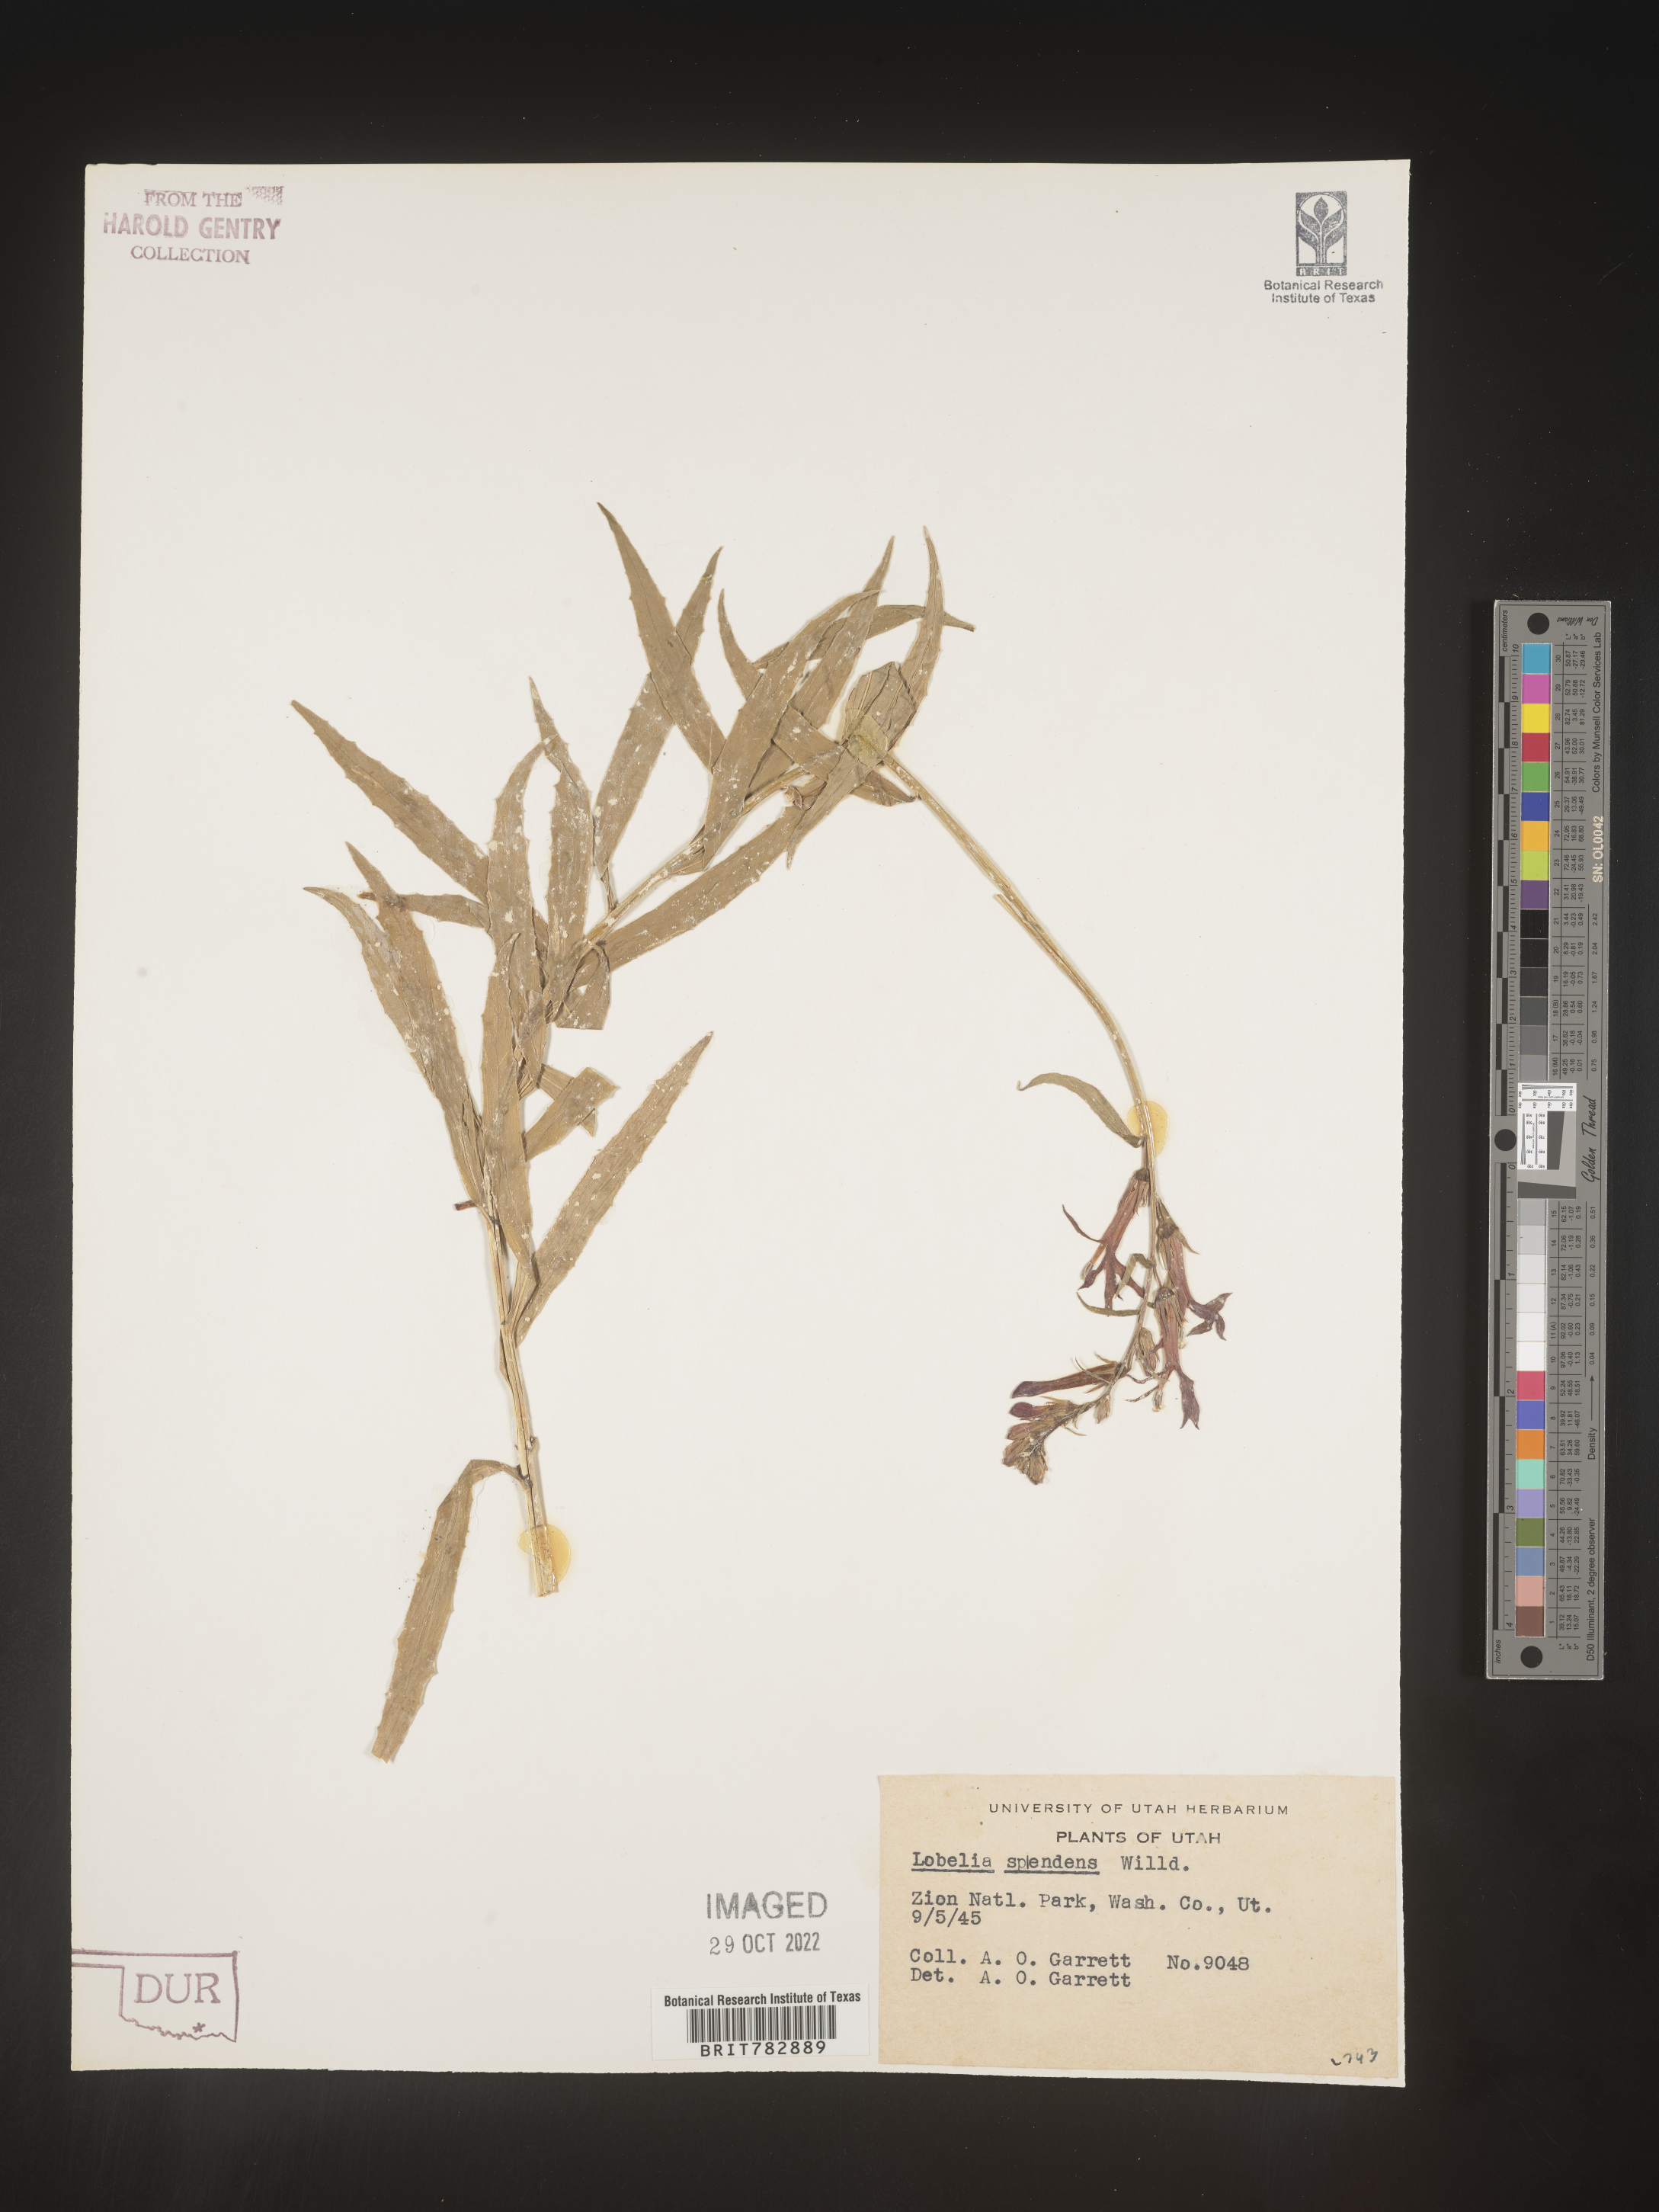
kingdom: Plantae
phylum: Tracheophyta
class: Magnoliopsida
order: Asterales
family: Campanulaceae
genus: Lobelia
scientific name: Lobelia cardinalis
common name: Cardinal flower
